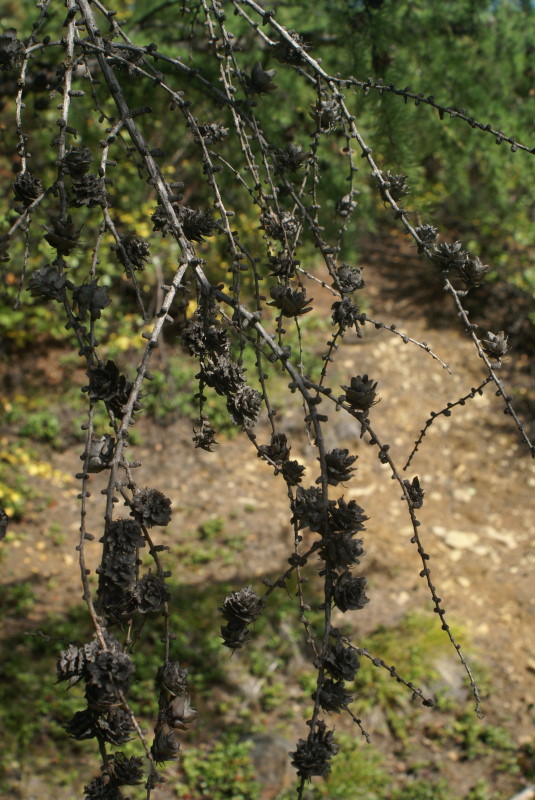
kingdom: Plantae
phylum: Tracheophyta
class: Pinopsida
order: Pinales
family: Pinaceae
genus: Larix
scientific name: Larix gmelinii
